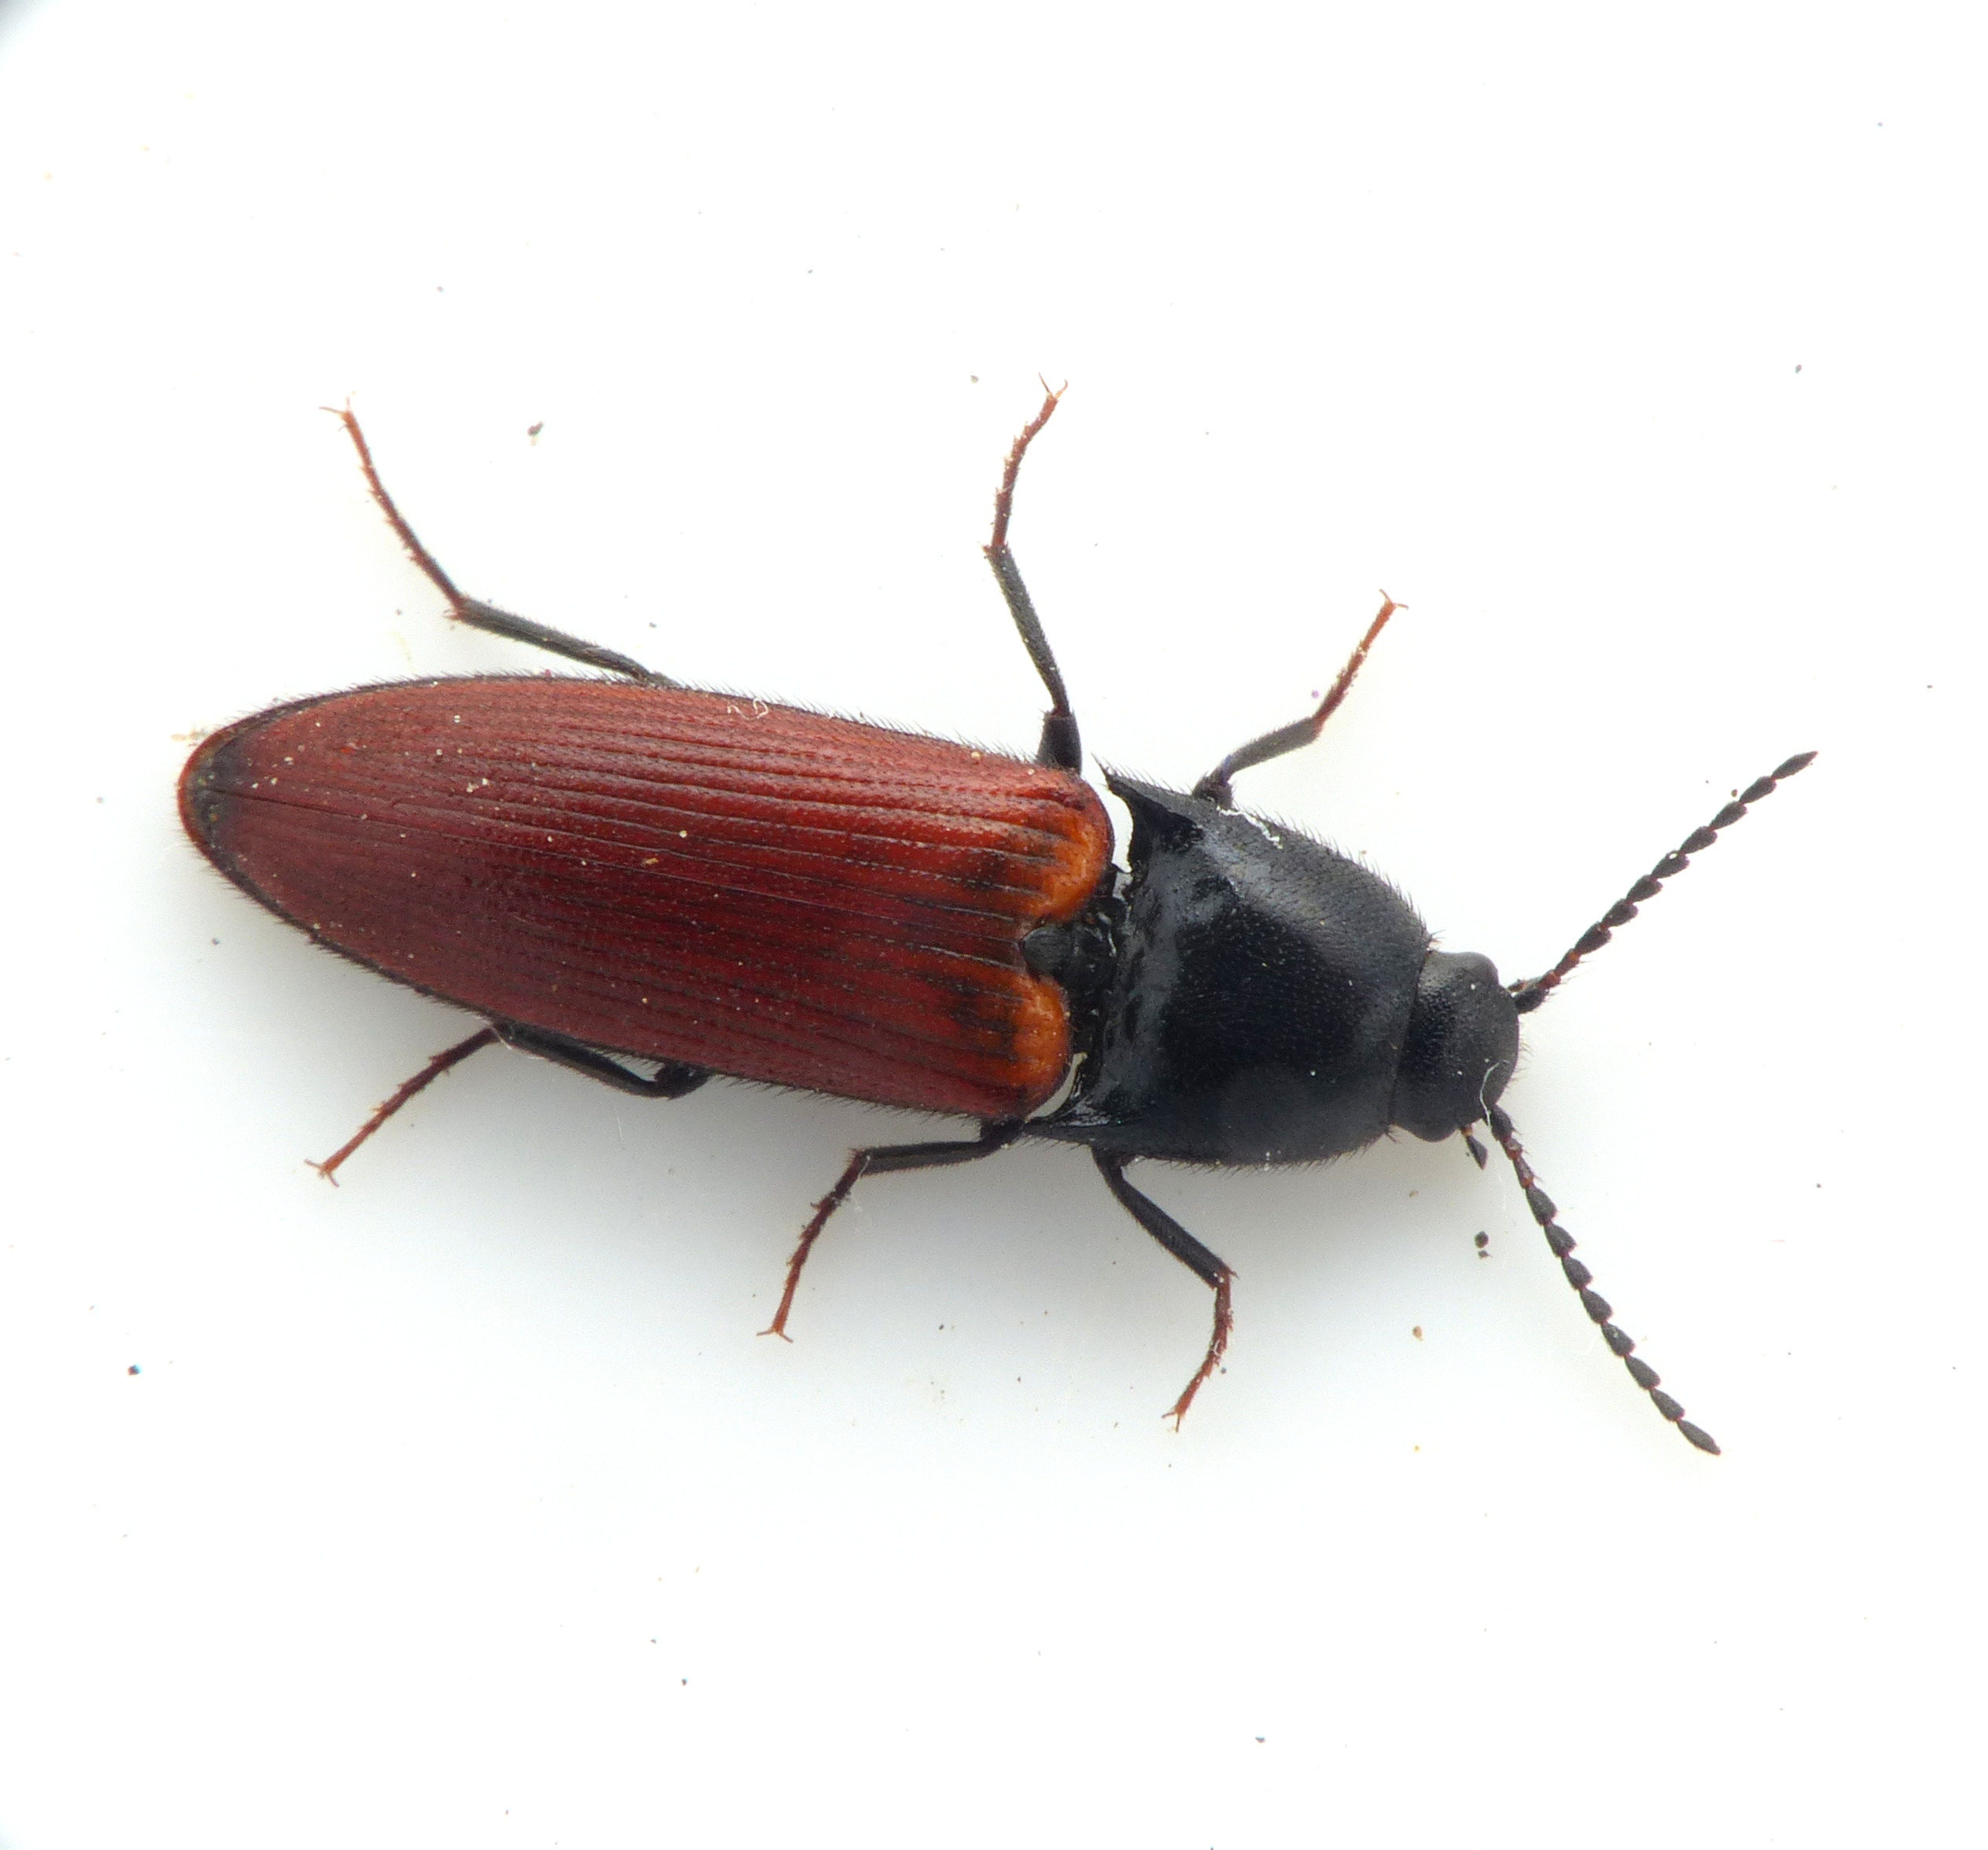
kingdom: Animalia
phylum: Arthropoda
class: Insecta
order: Coleoptera
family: Elateridae
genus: Ampedus
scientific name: Ampedus pomorum
